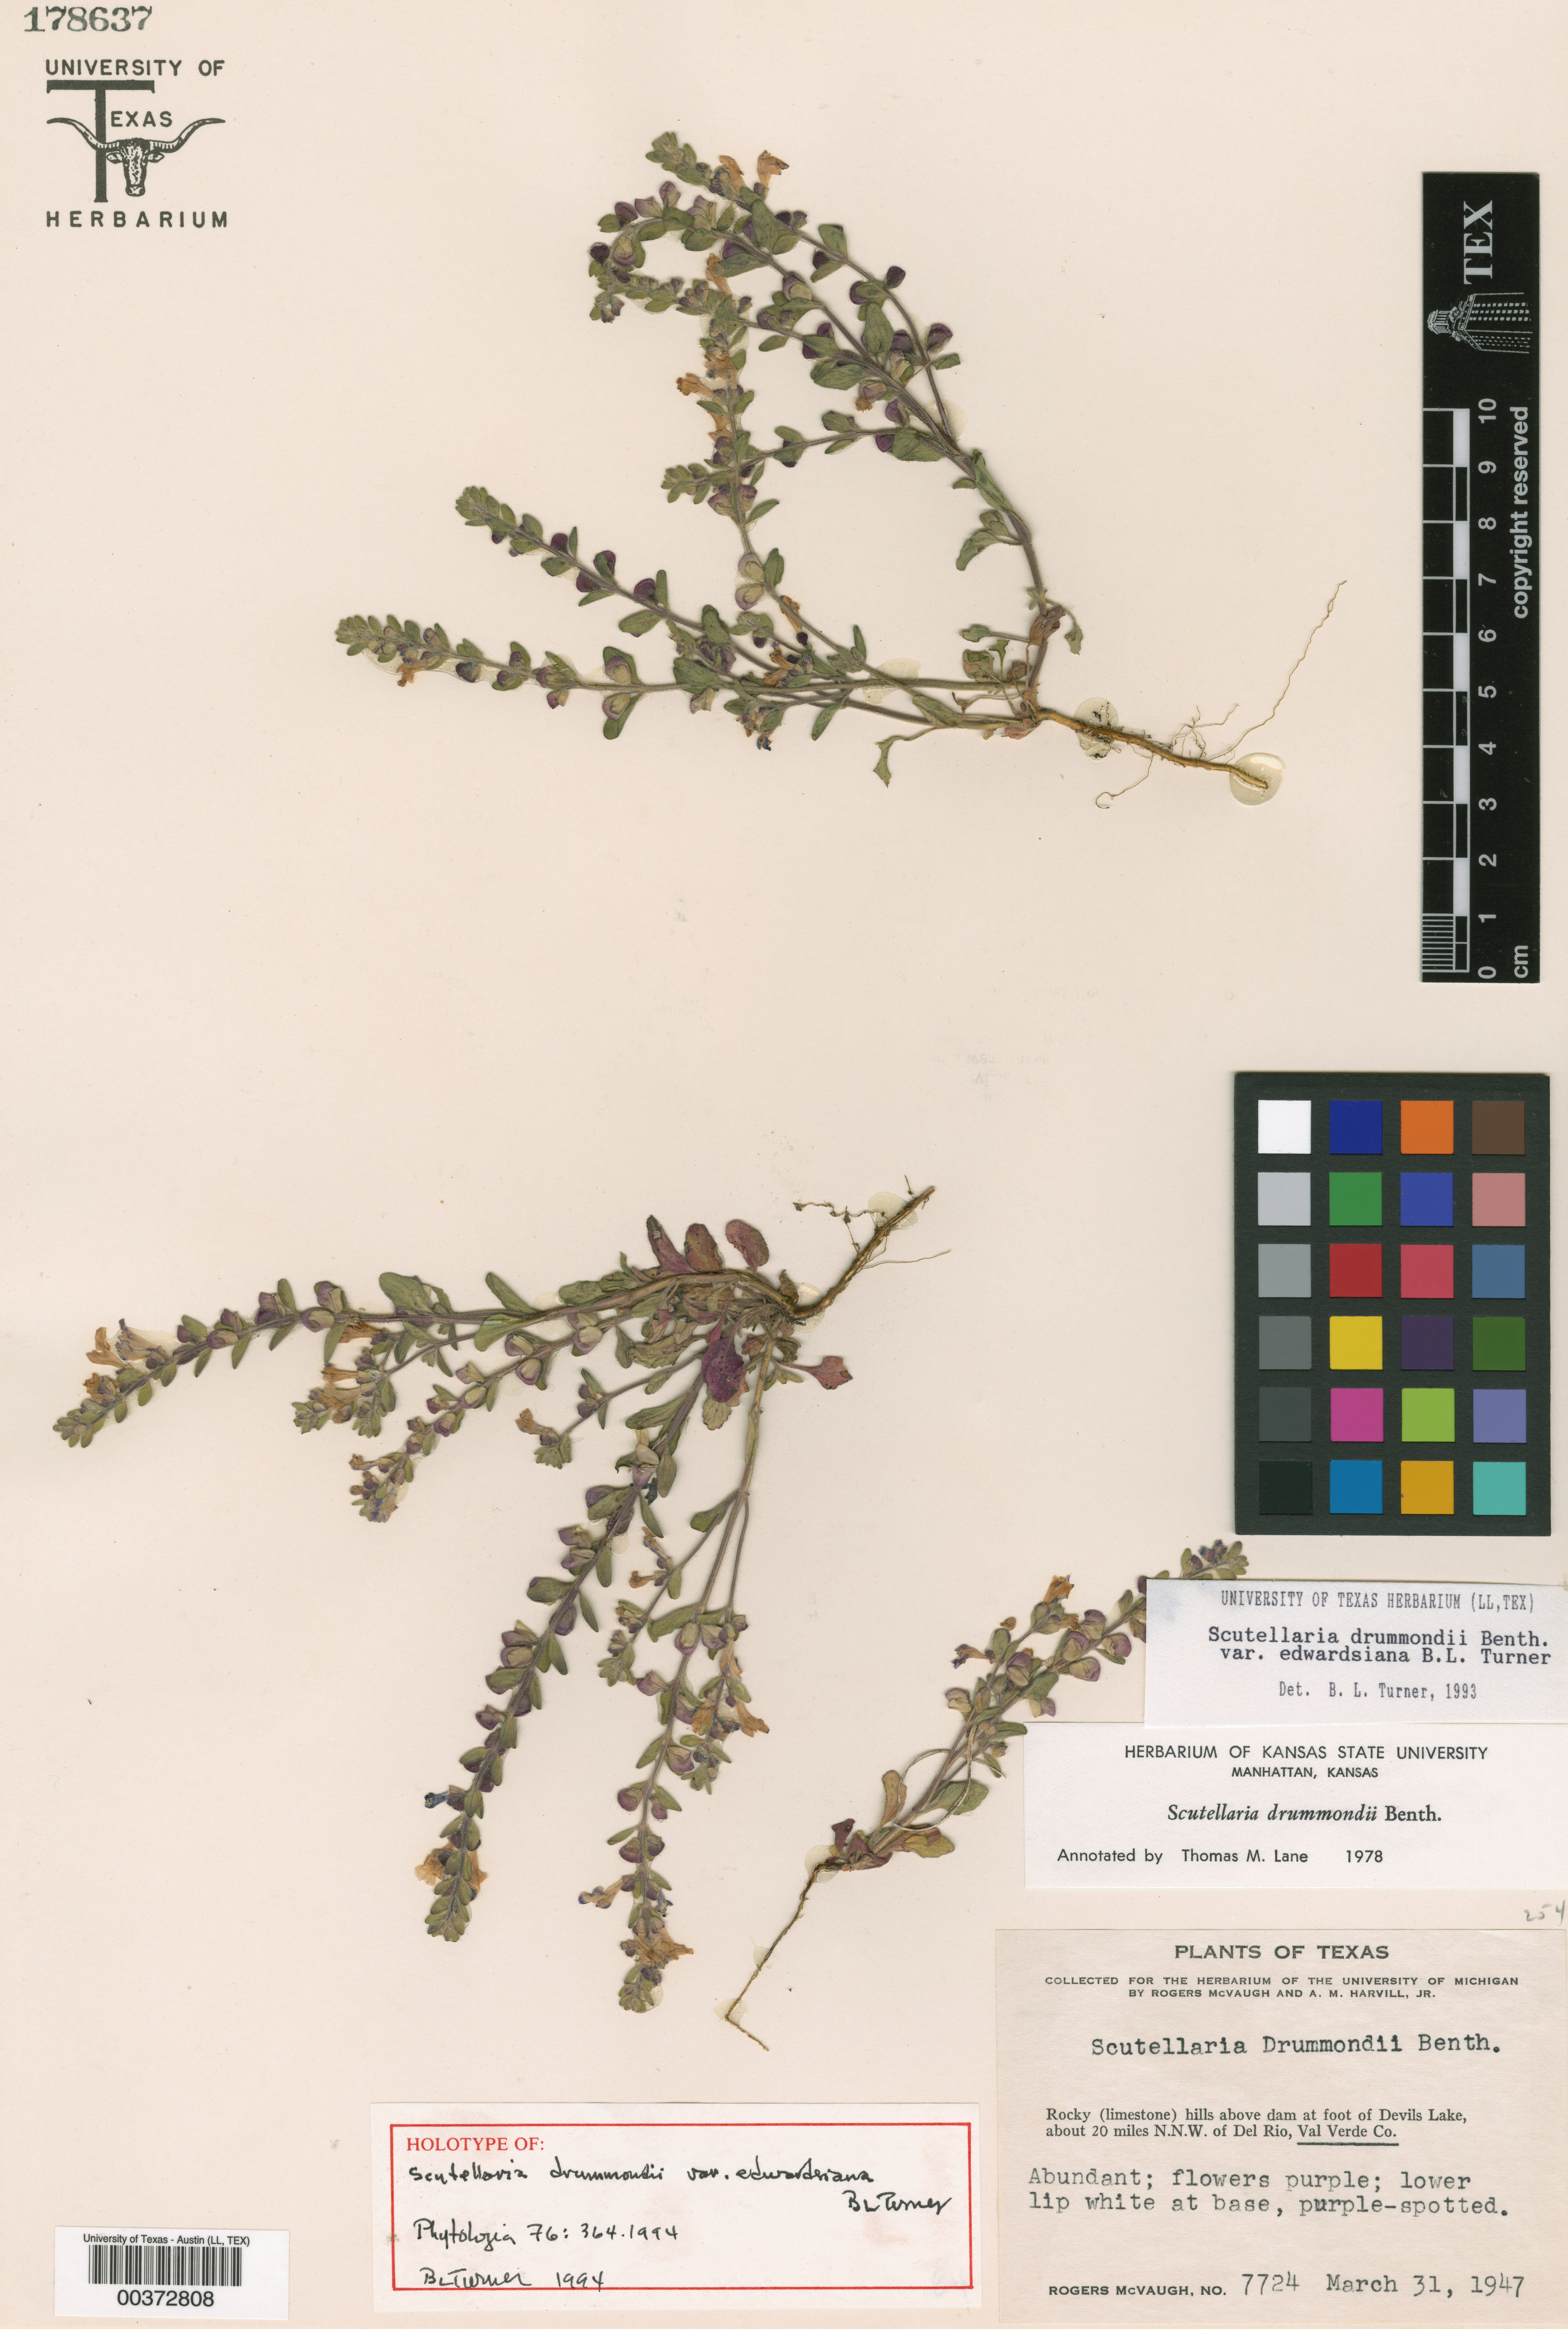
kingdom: Plantae
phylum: Tracheophyta
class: Magnoliopsida
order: Malpighiales
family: Hypericaceae
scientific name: Hypericaceae
